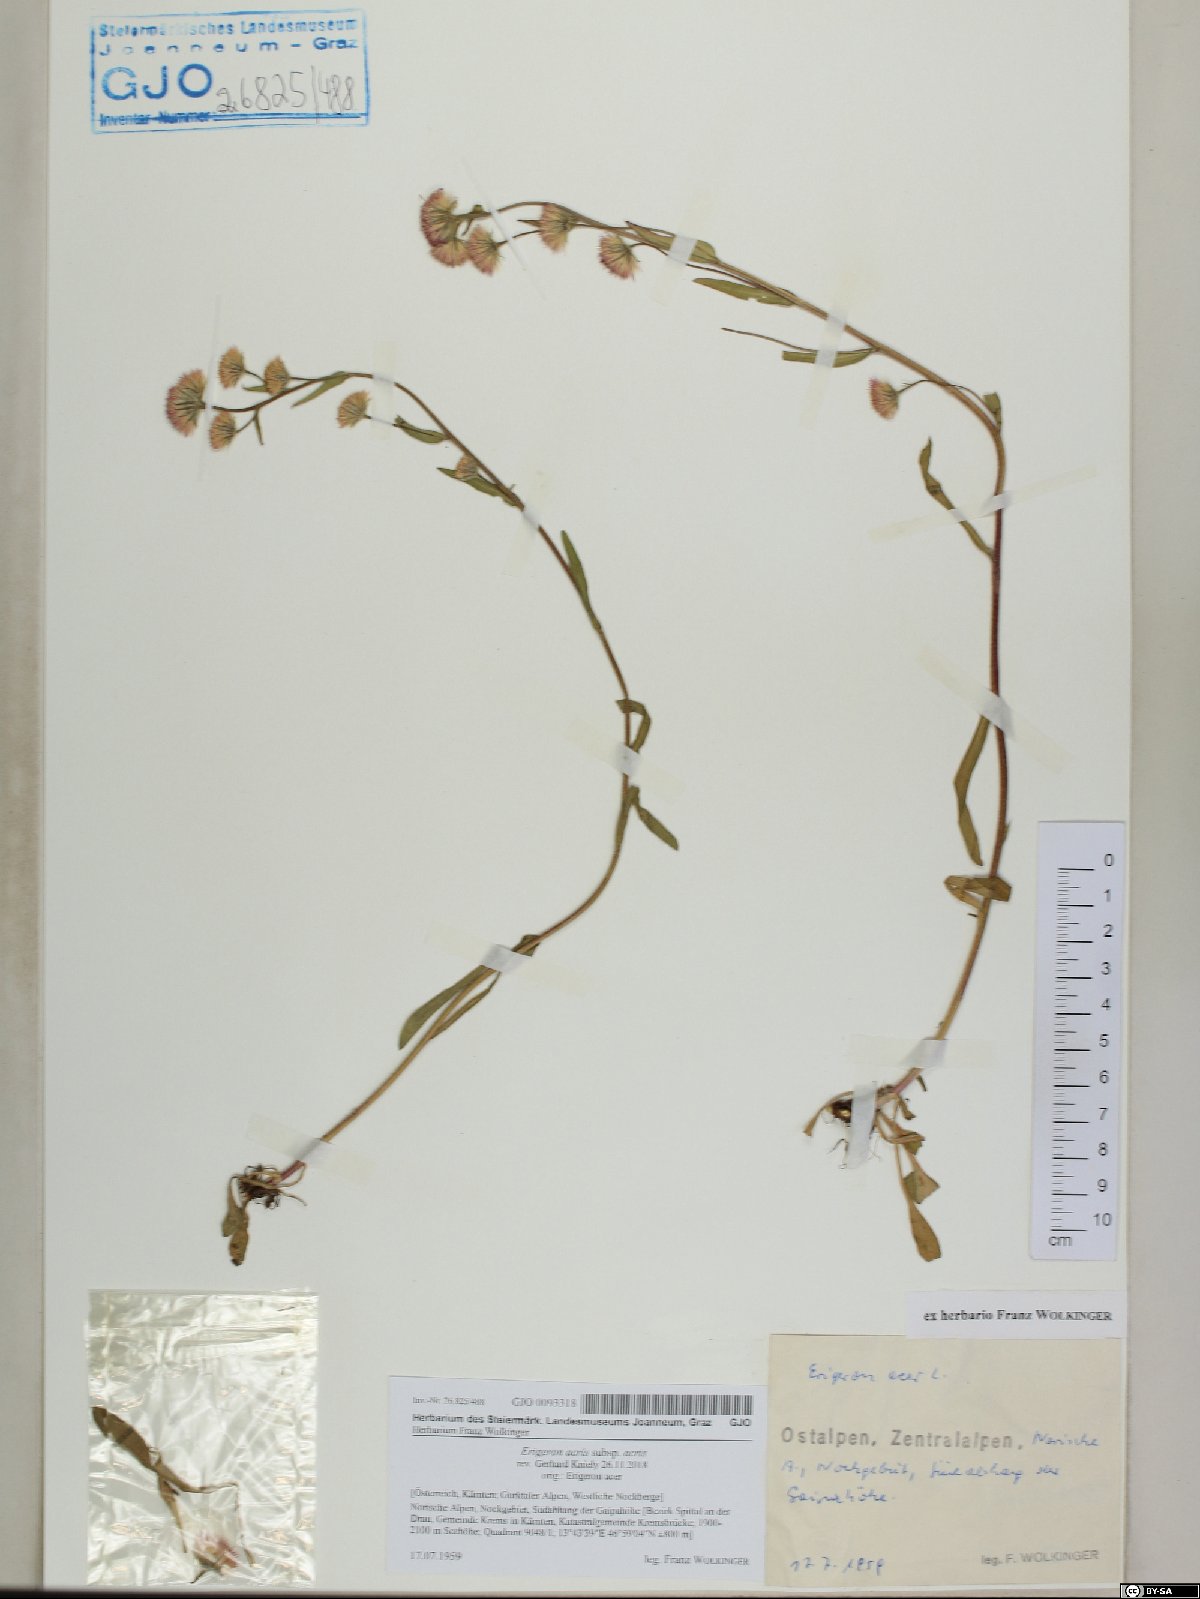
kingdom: Plantae
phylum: Tracheophyta
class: Magnoliopsida
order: Asterales
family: Asteraceae
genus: Erigeron
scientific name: Erigeron acris
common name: Blue fleabane
